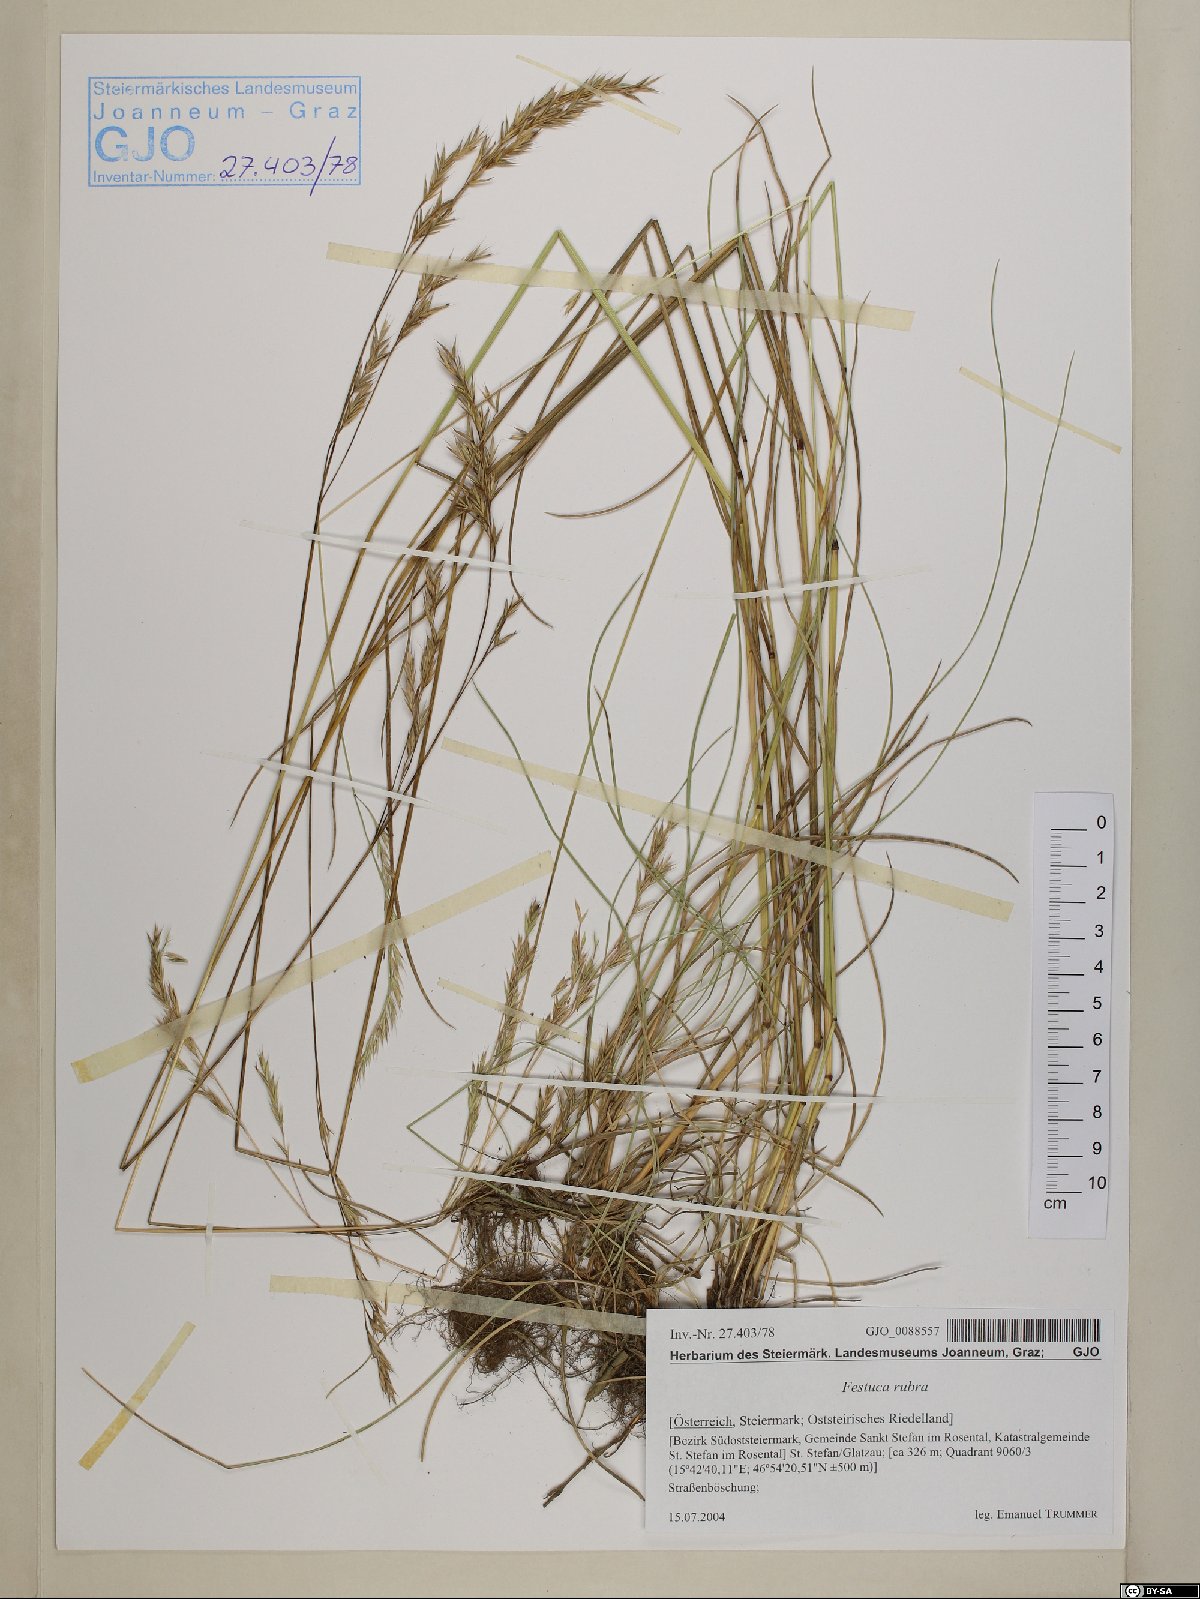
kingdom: Plantae
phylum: Tracheophyta
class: Liliopsida
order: Poales
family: Poaceae
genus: Festuca
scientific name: Festuca rubra
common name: Red fescue
